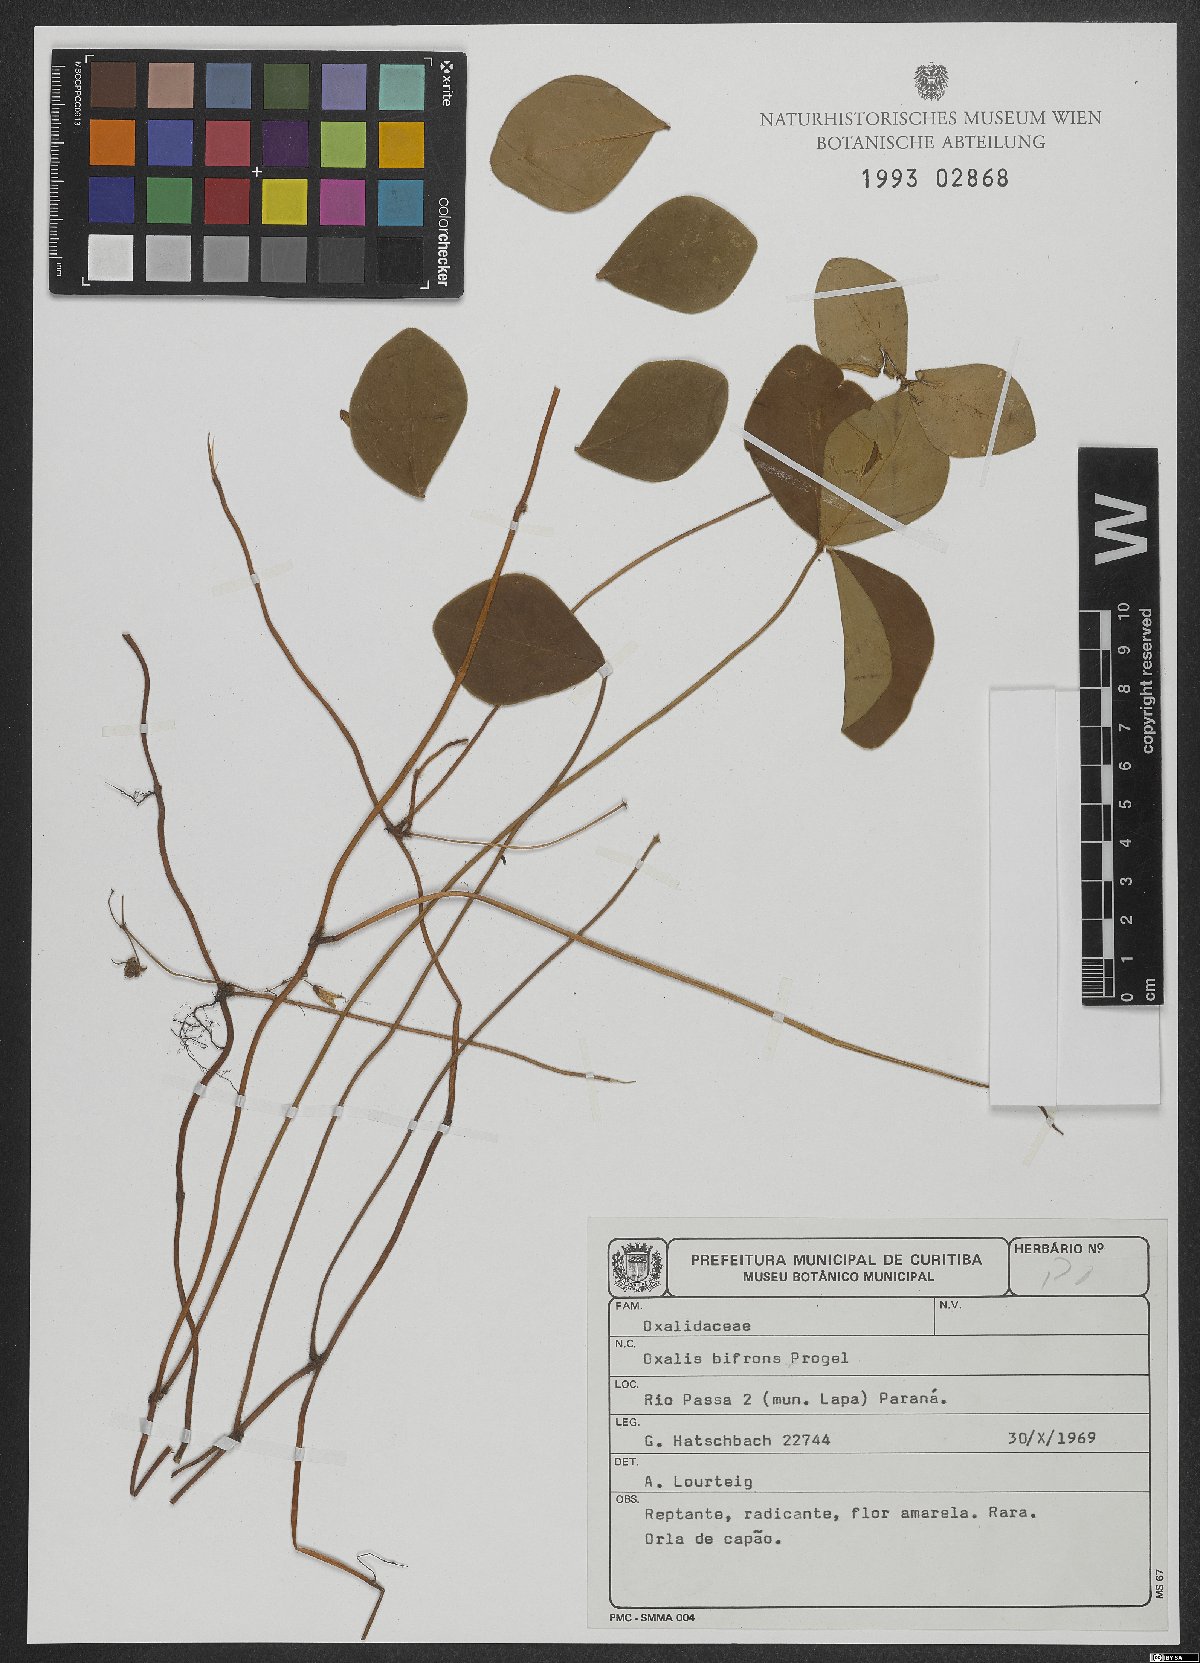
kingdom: Plantae
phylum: Tracheophyta
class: Magnoliopsida
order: Oxalidales
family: Oxalidaceae
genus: Oxalis
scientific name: Oxalis bifrons
